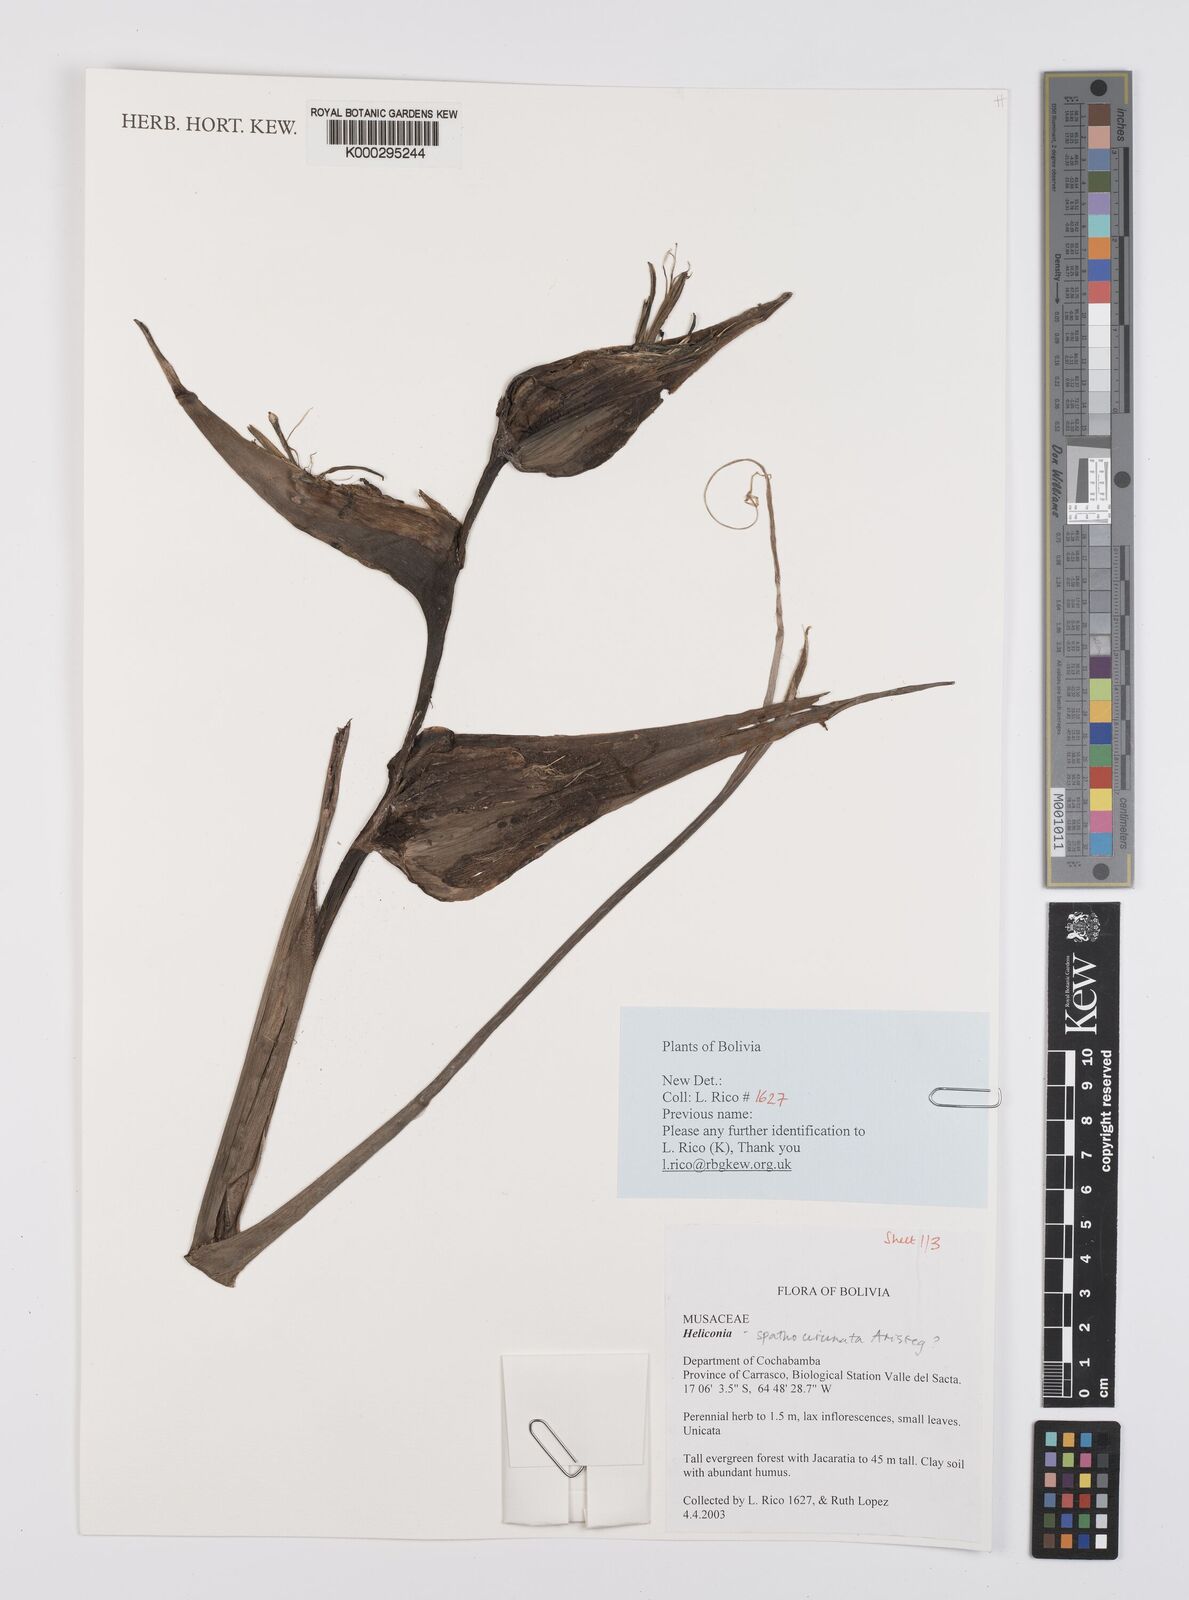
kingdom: Plantae
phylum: Tracheophyta
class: Liliopsida
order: Zingiberales
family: Heliconiaceae
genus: Heliconia
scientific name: Heliconia
